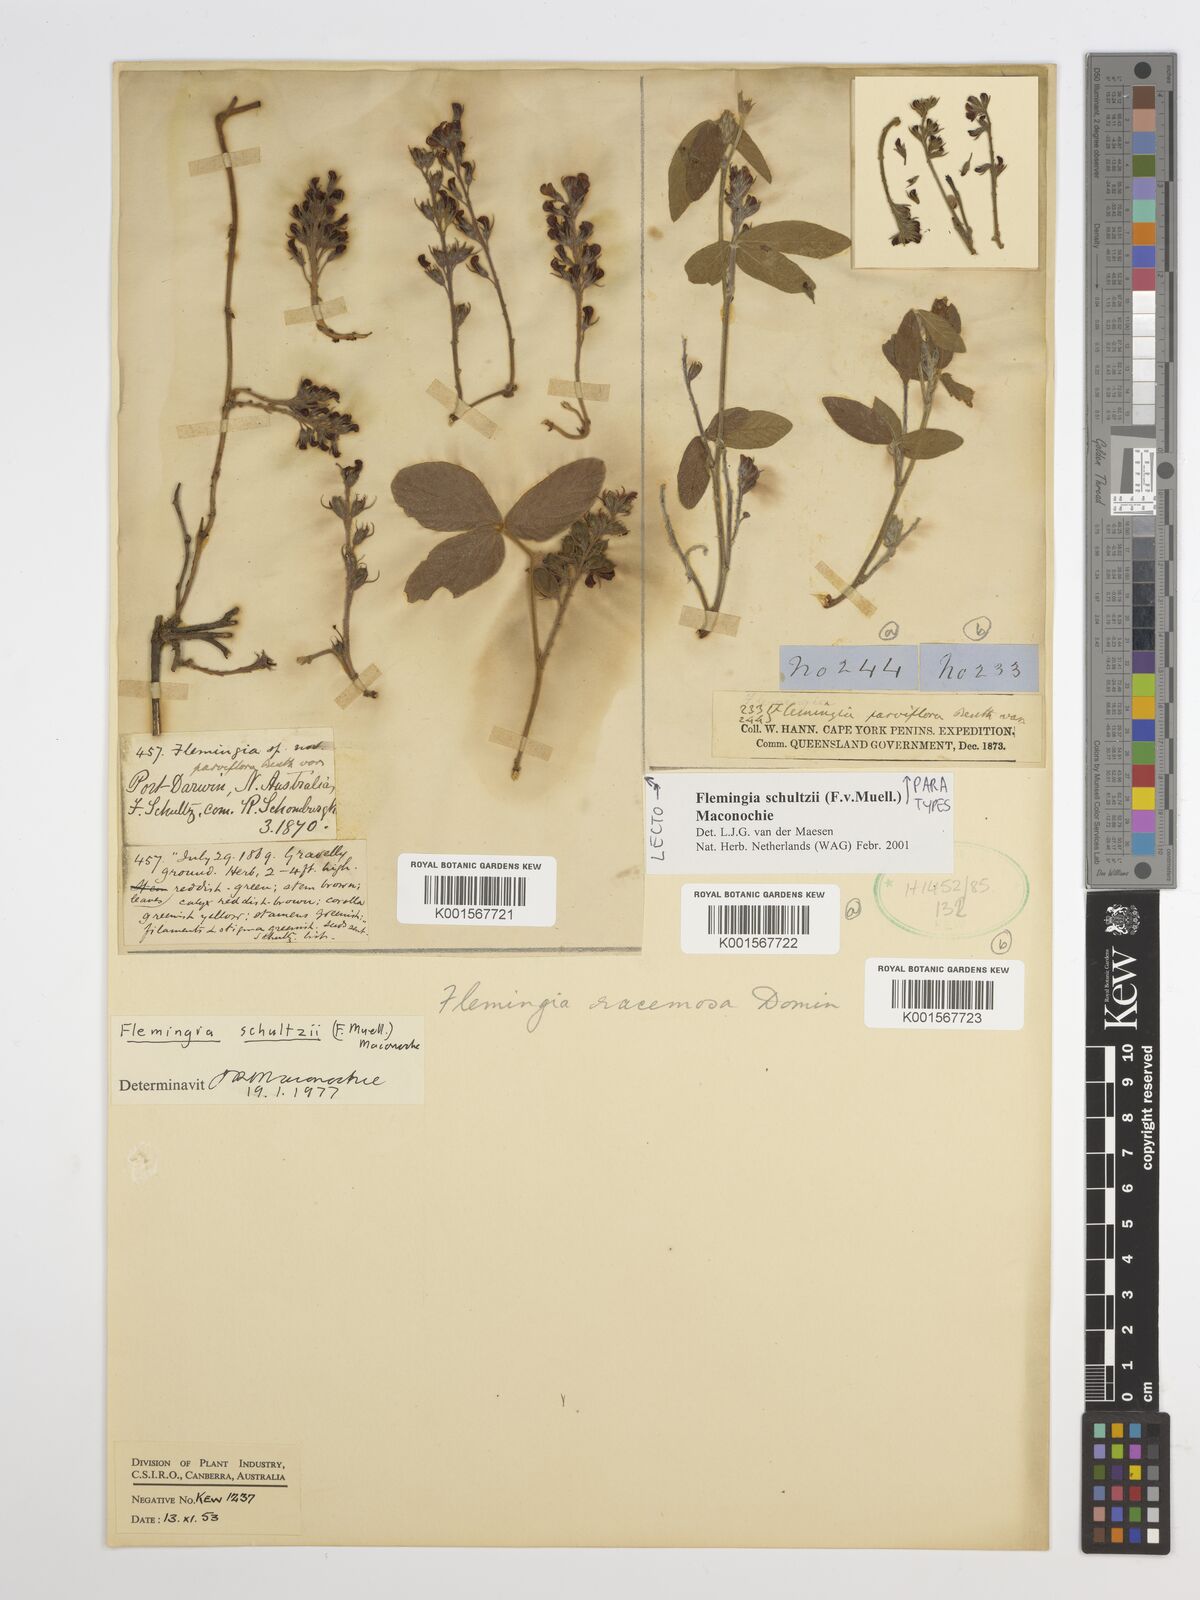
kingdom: Plantae
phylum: Tracheophyta
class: Magnoliopsida
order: Fabales
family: Fabaceae
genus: Flemingia
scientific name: Flemingia parviflora
